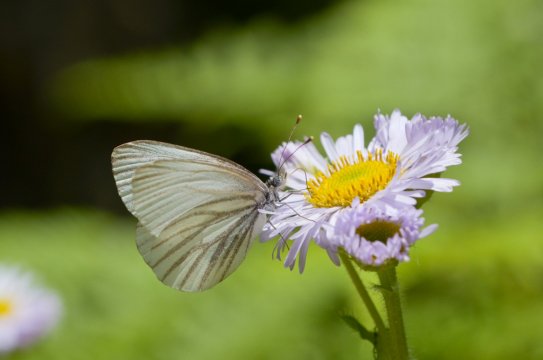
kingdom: Animalia
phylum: Arthropoda
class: Insecta
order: Lepidoptera
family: Pieridae
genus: Pieris
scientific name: Pieris oleracea
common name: Mustard White
